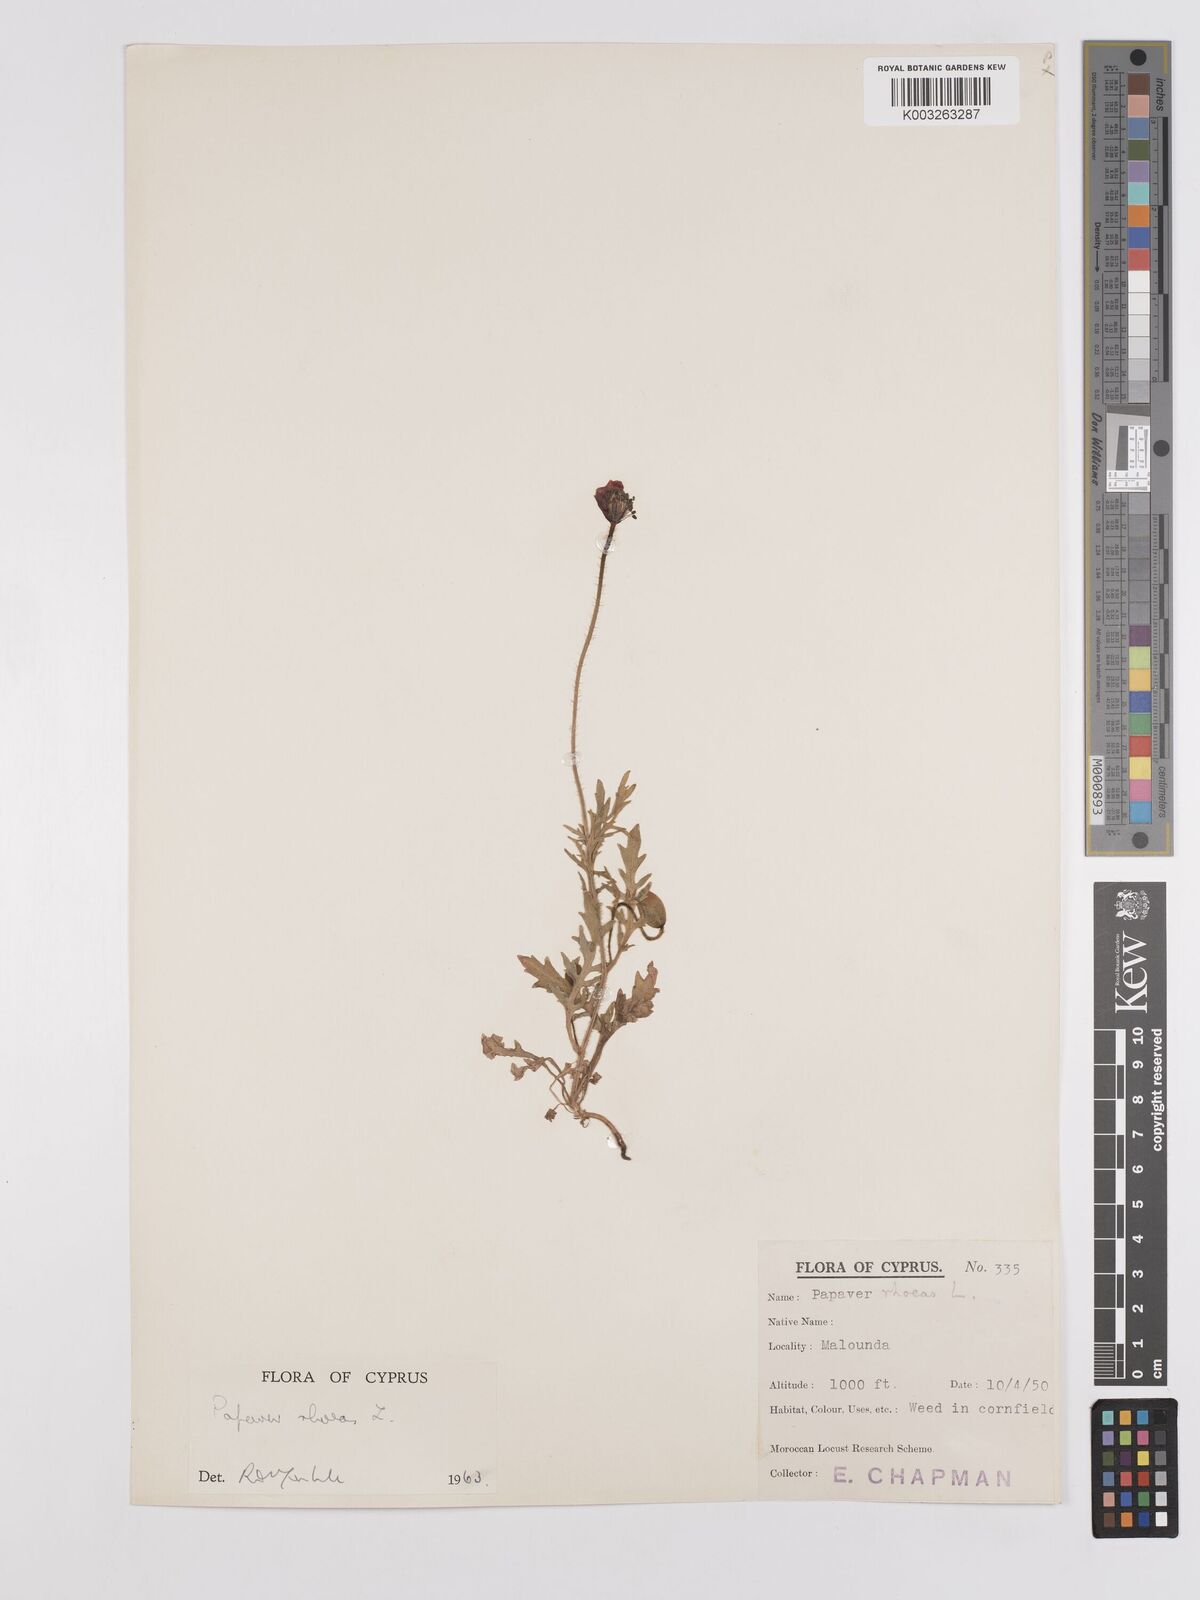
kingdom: Plantae
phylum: Tracheophyta
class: Magnoliopsida
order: Ranunculales
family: Papaveraceae
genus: Papaver
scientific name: Papaver rhoeas
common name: Corn poppy
